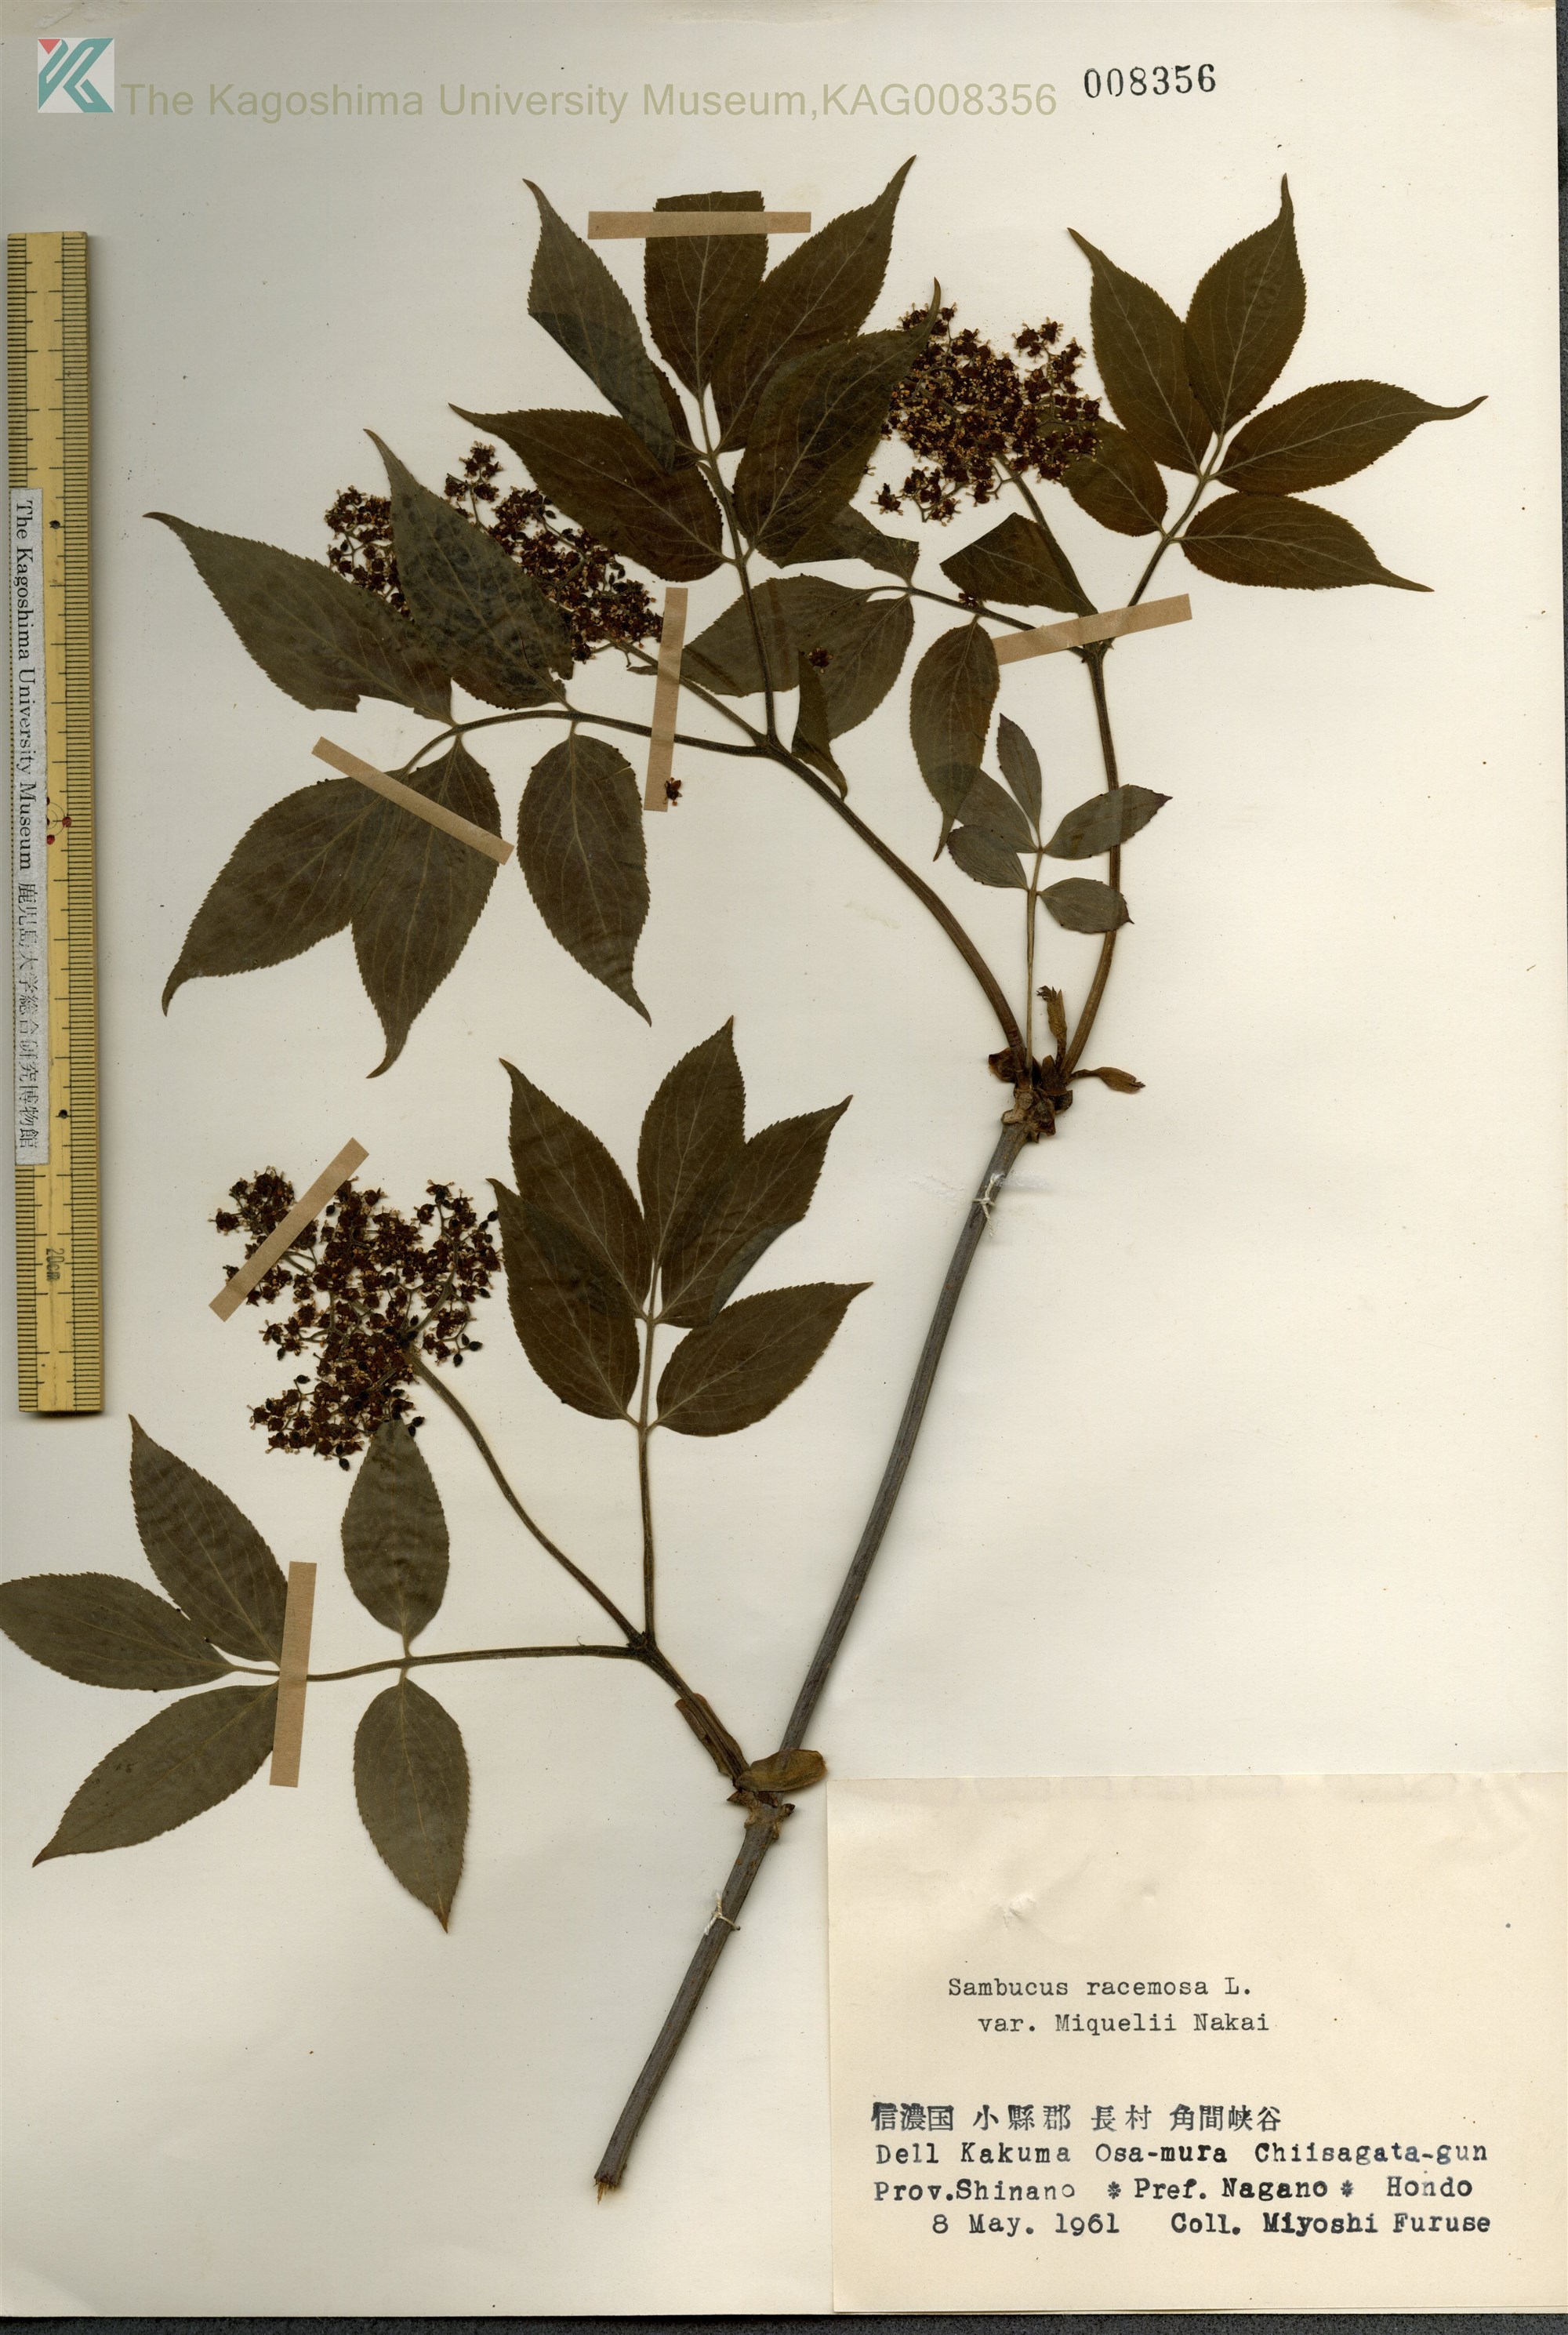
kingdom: Plantae
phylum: Tracheophyta
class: Magnoliopsida
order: Dipsacales
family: Viburnaceae
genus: Sambucus
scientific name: Sambucus sieboldiana
